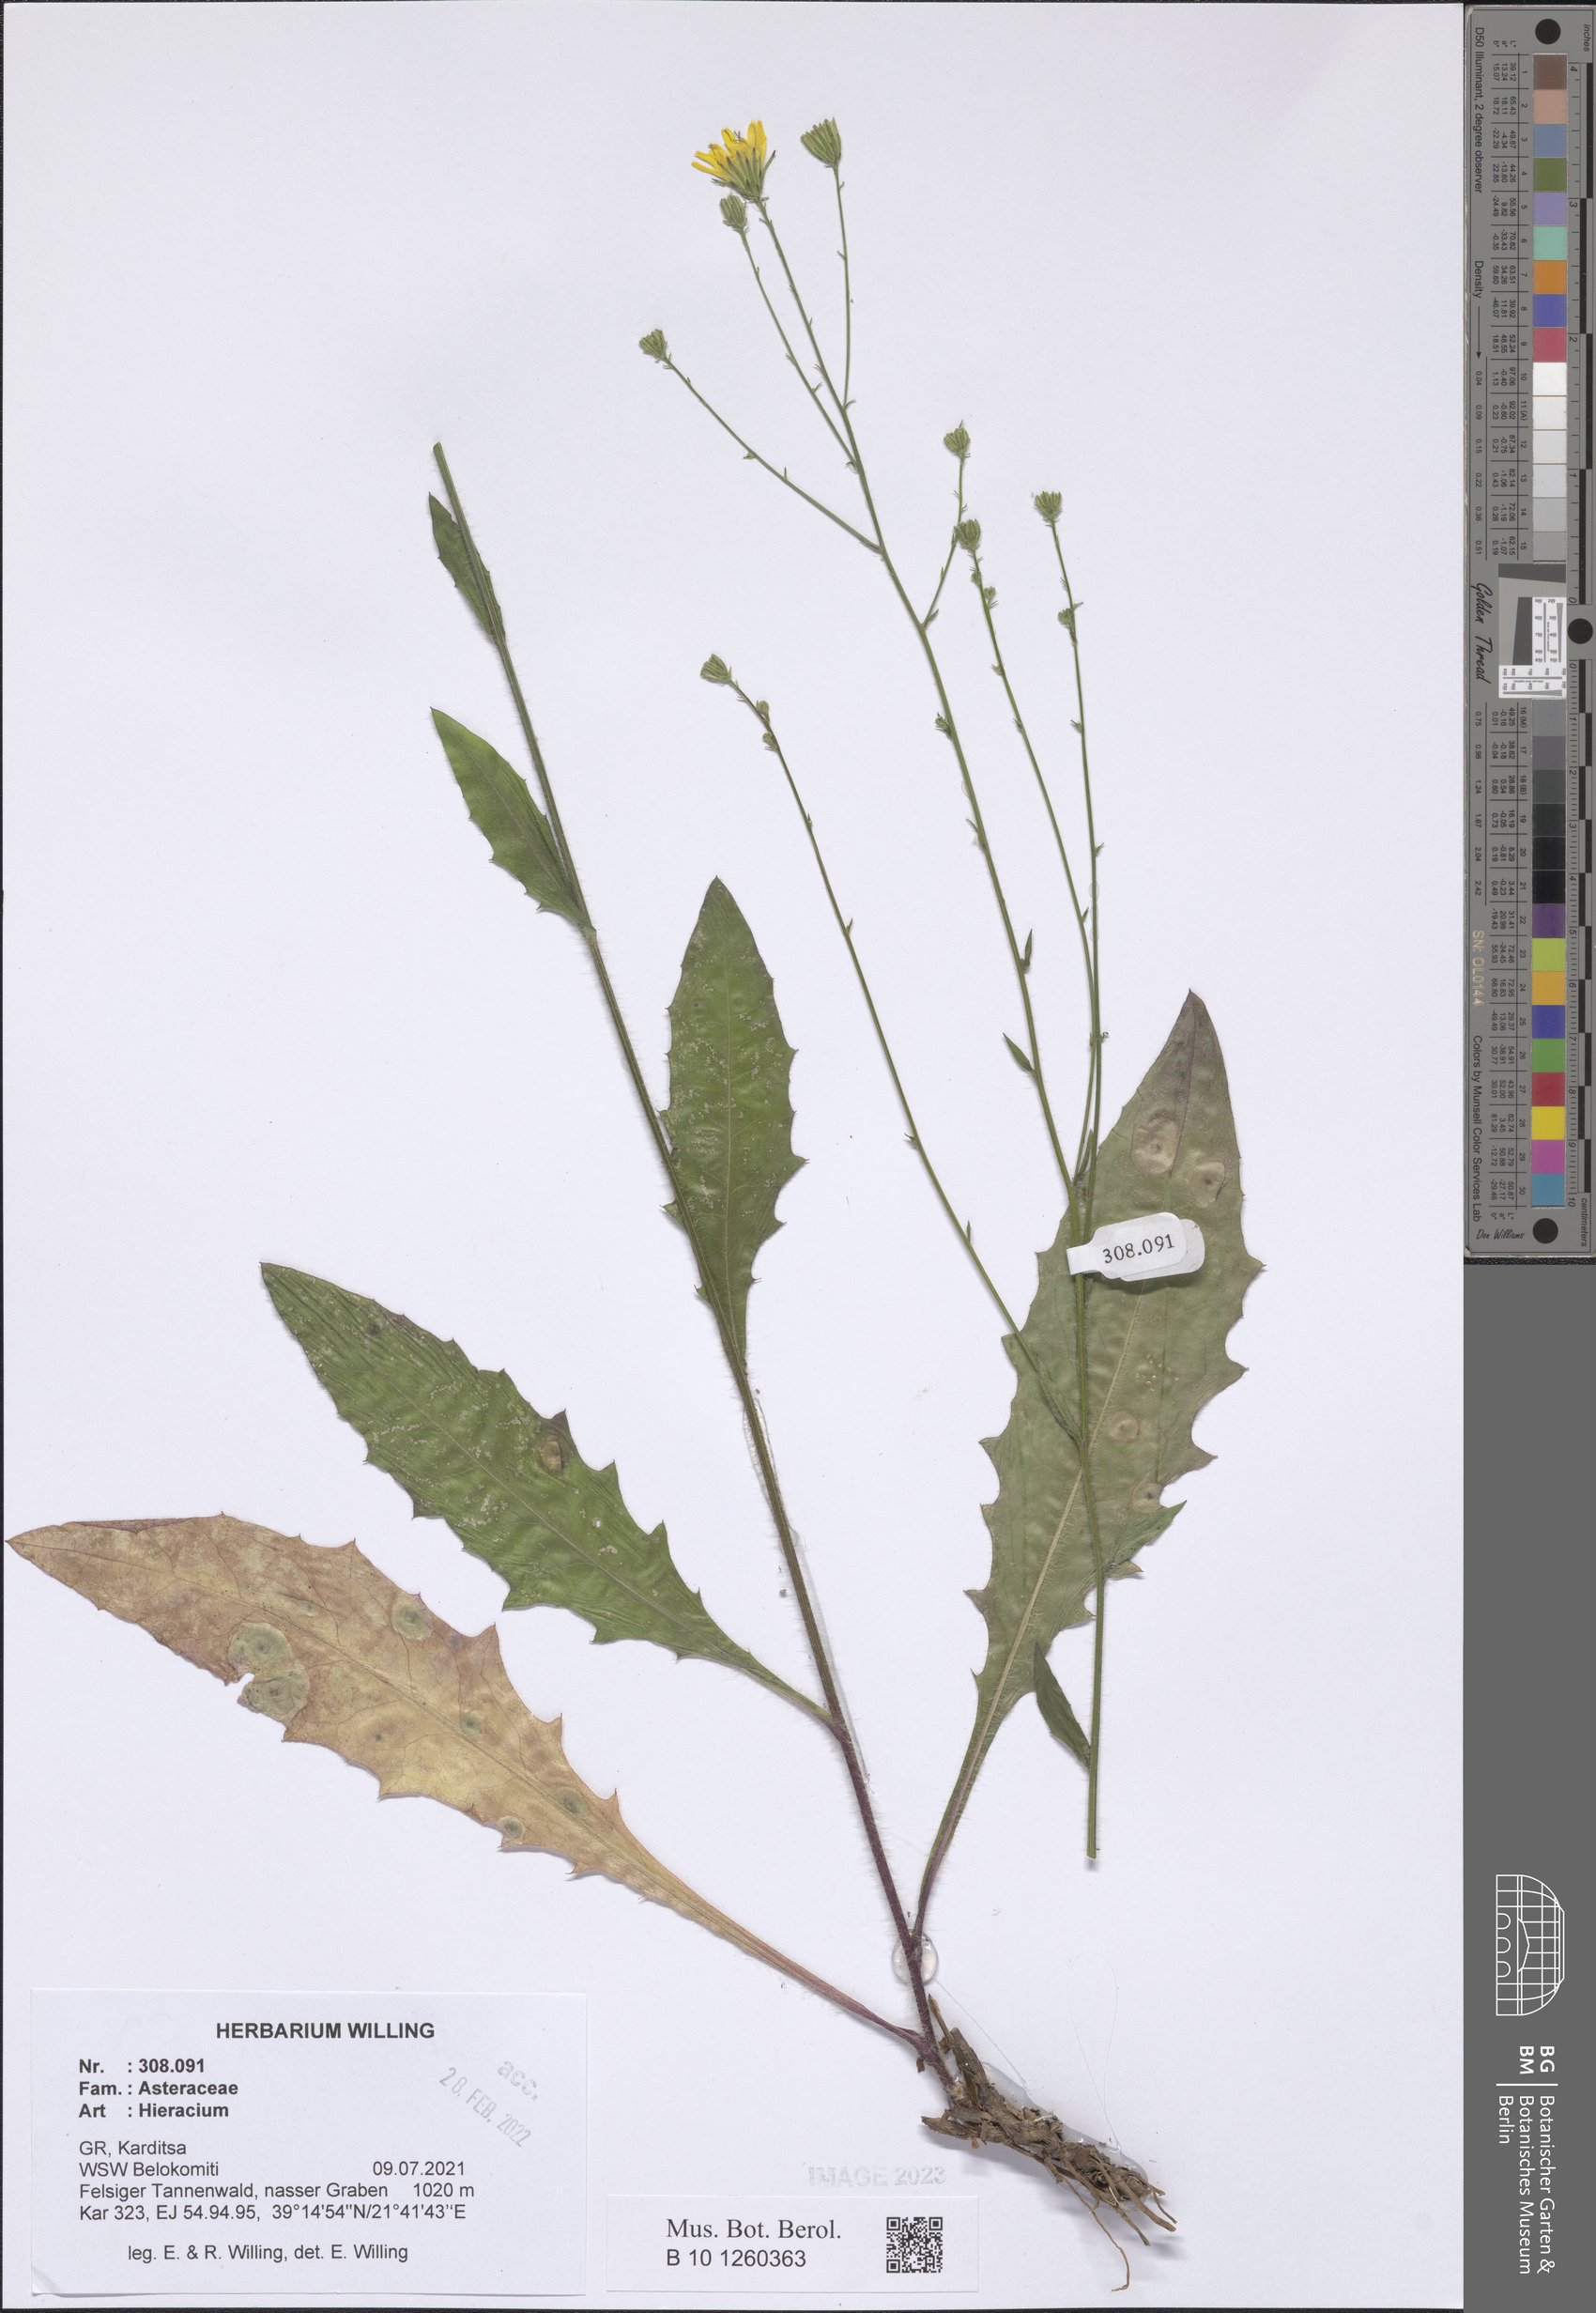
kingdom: Plantae
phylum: Tracheophyta
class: Magnoliopsida
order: Asterales
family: Asteraceae
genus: Hieracium
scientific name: Hieracium
